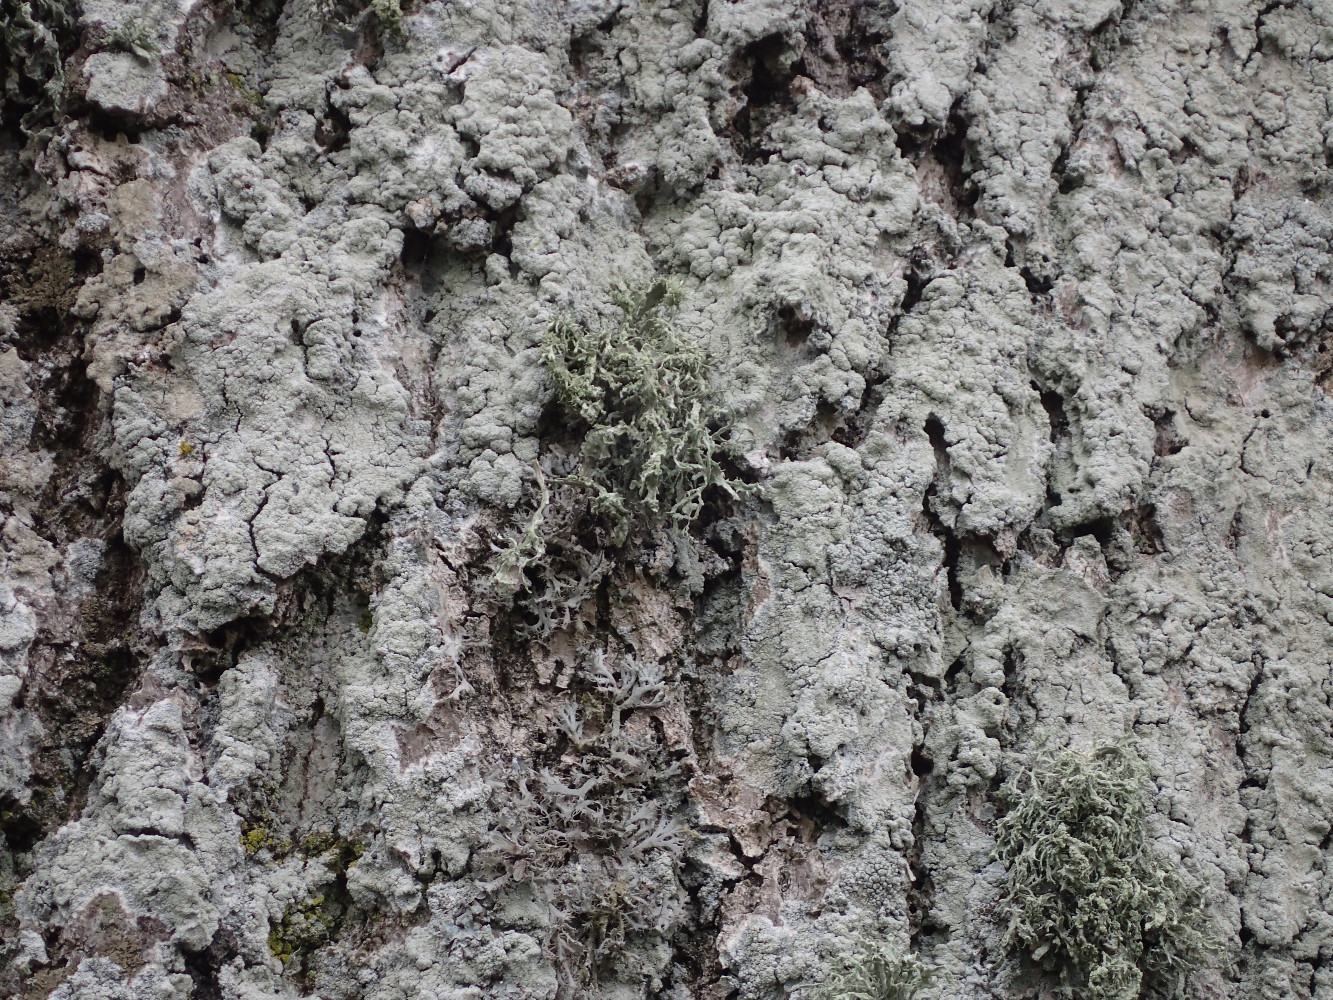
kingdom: Fungi
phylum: Ascomycota
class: Lecanoromycetes
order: Caliciales
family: Physciaceae
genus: Anaptychia
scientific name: Anaptychia ciliaris
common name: allé-frynselav
